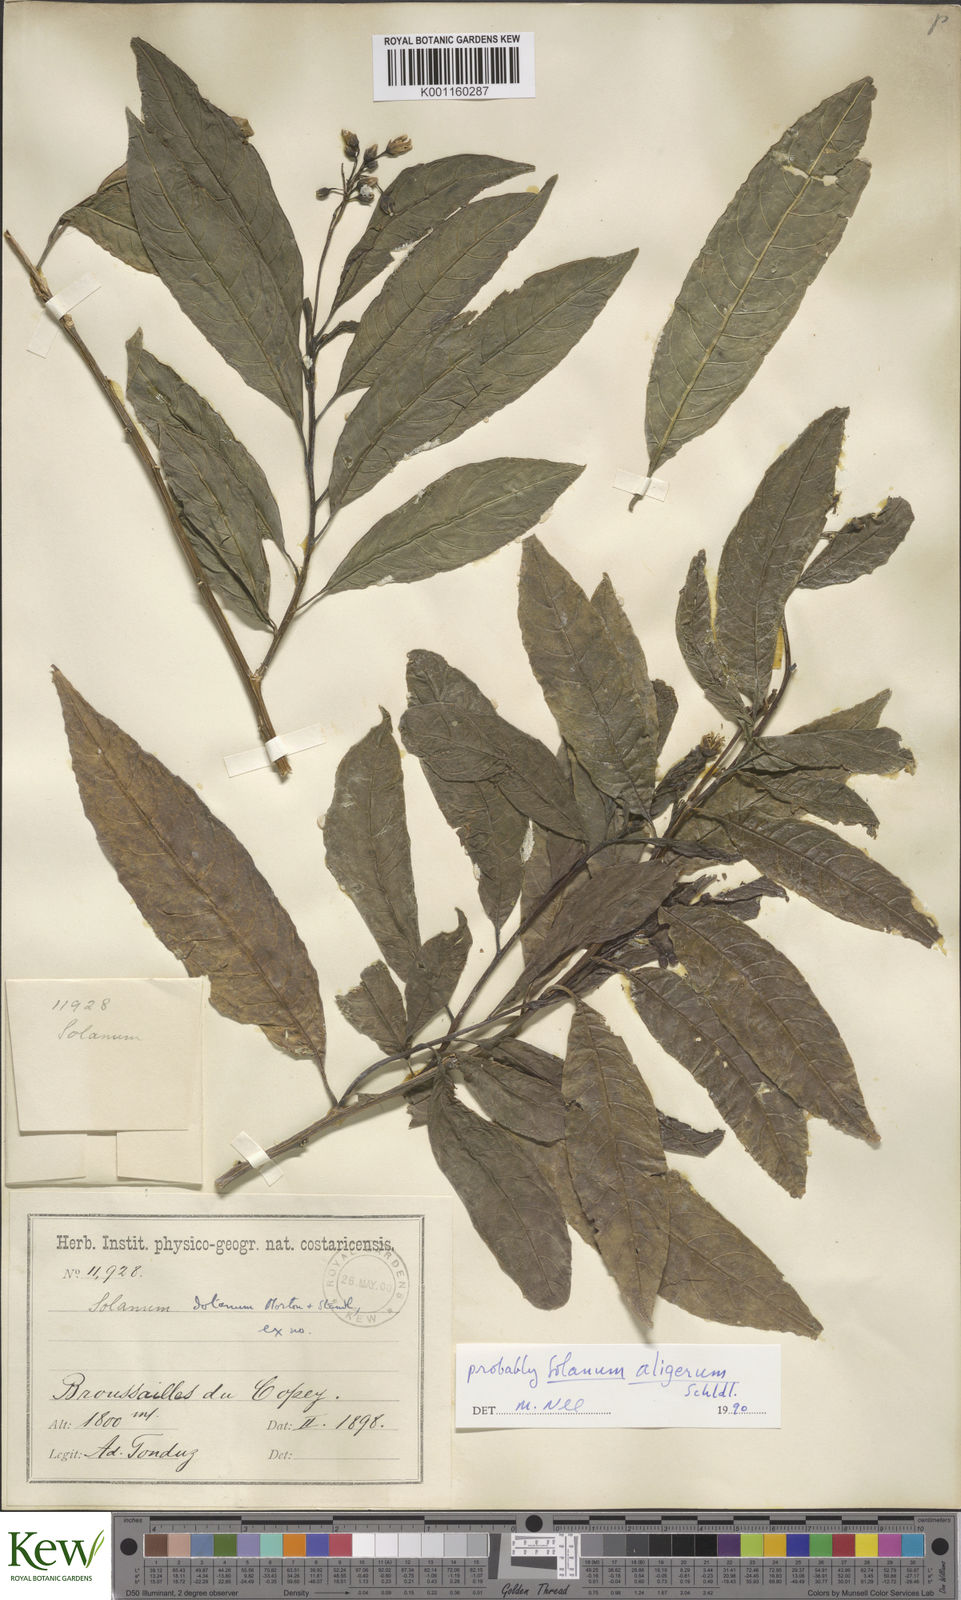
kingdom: Plantae
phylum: Tracheophyta
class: Magnoliopsida
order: Solanales
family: Solanaceae
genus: Solanum
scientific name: Solanum aligerum
